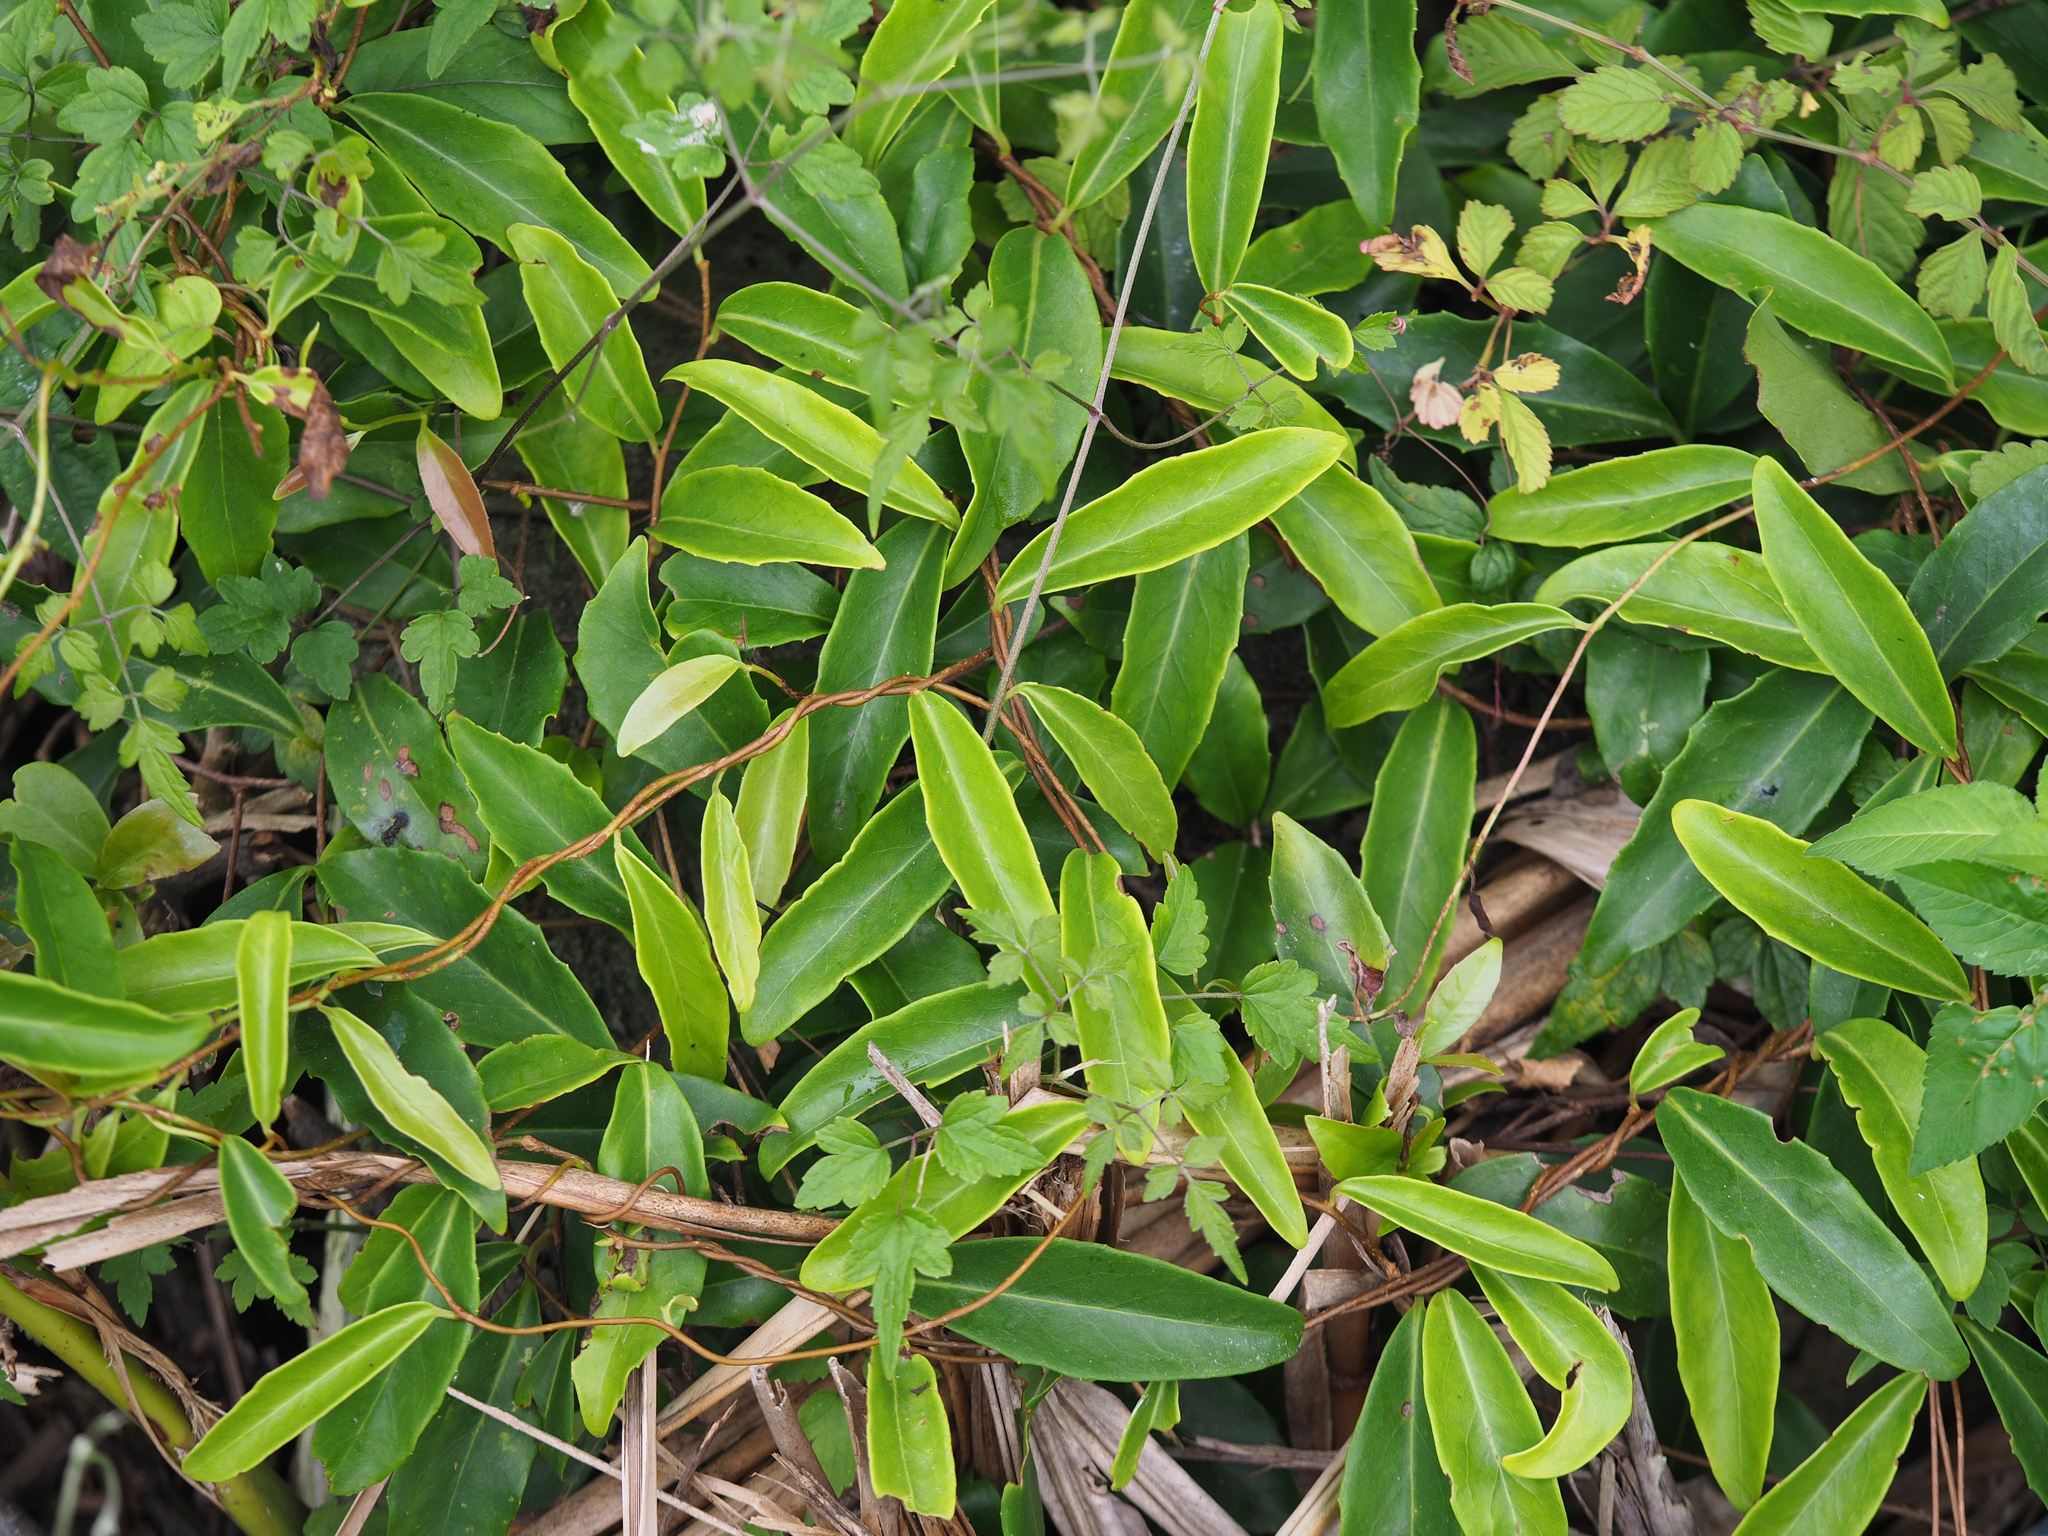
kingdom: Plantae
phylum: Tracheophyta
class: Magnoliopsida
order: Austrobaileyales
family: Schisandraceae
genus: Kadsura
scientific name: Kadsura japonica
